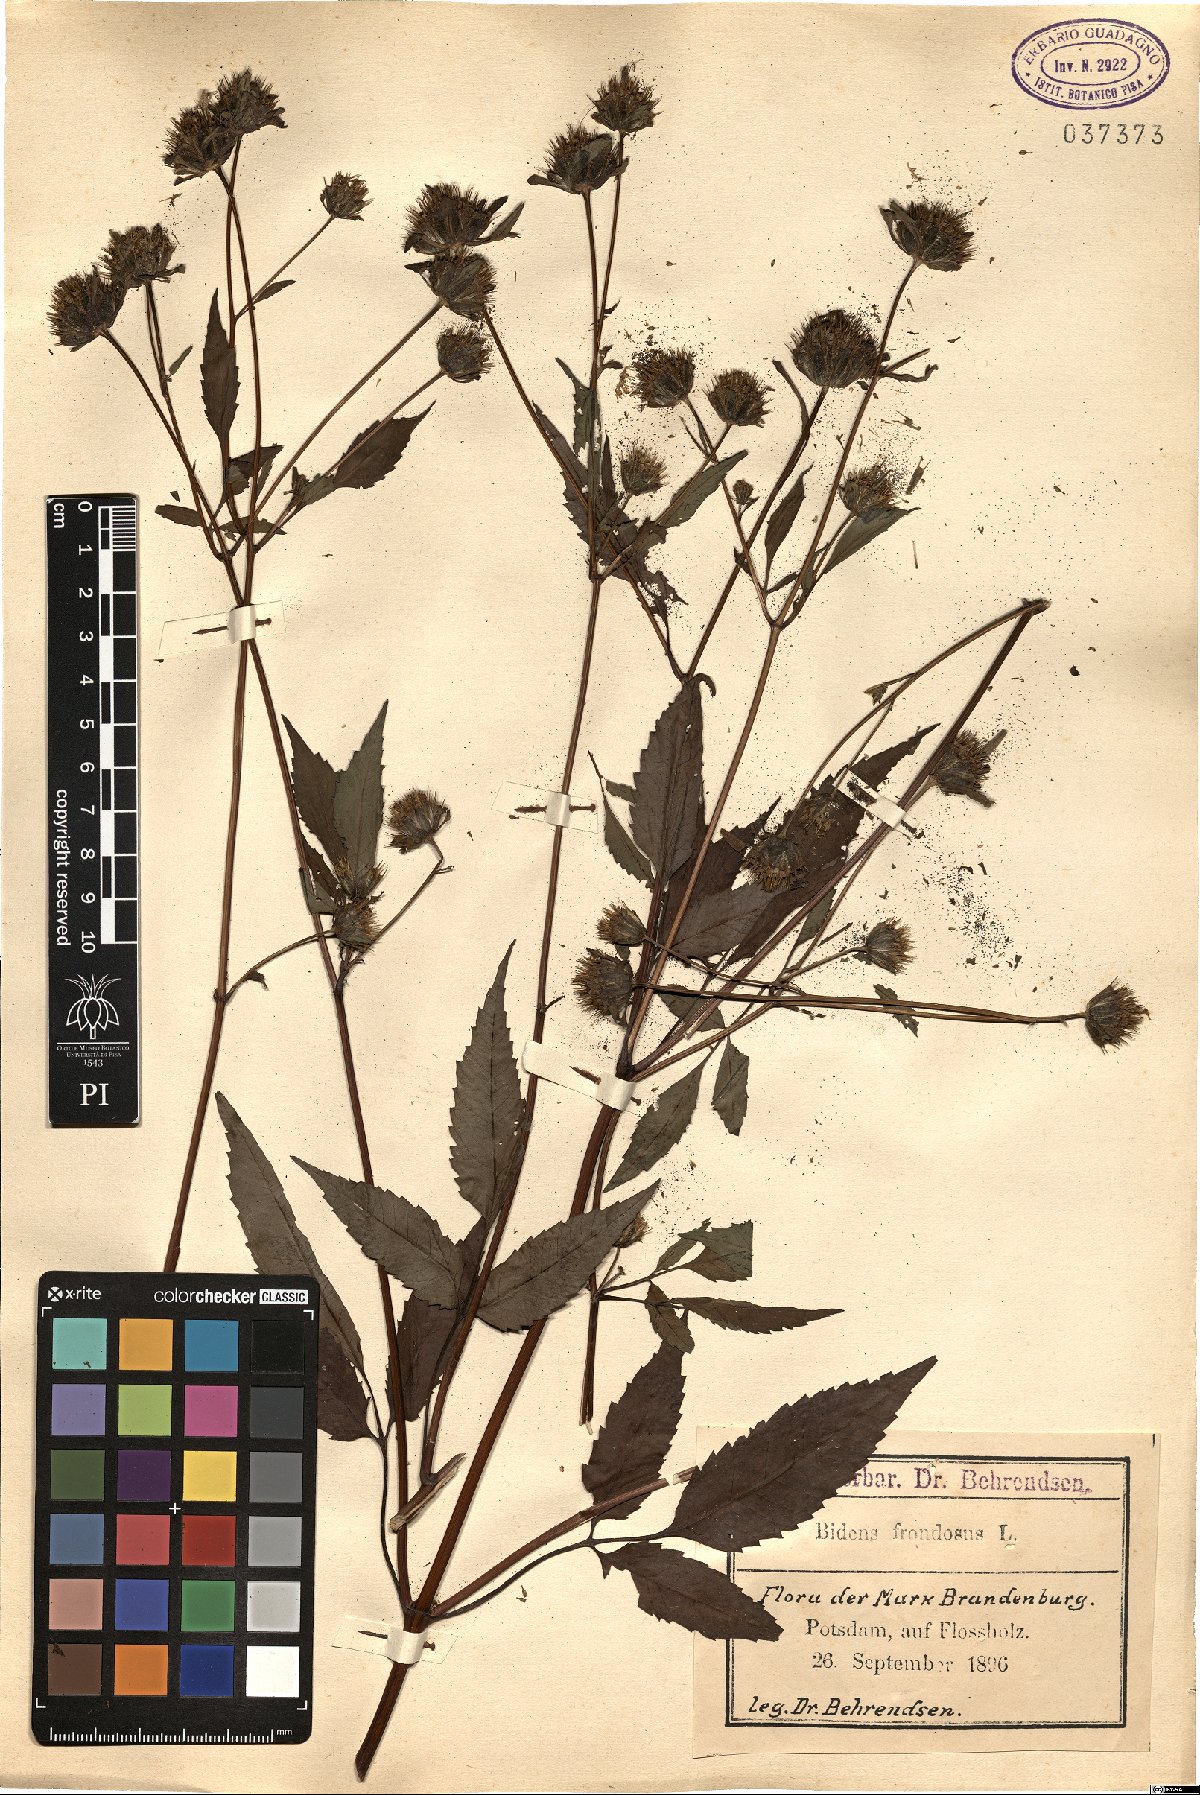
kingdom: Plantae
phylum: Tracheophyta
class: Magnoliopsida
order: Asterales
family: Asteraceae
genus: Bidens
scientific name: Bidens frondosa
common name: Beggarticks
